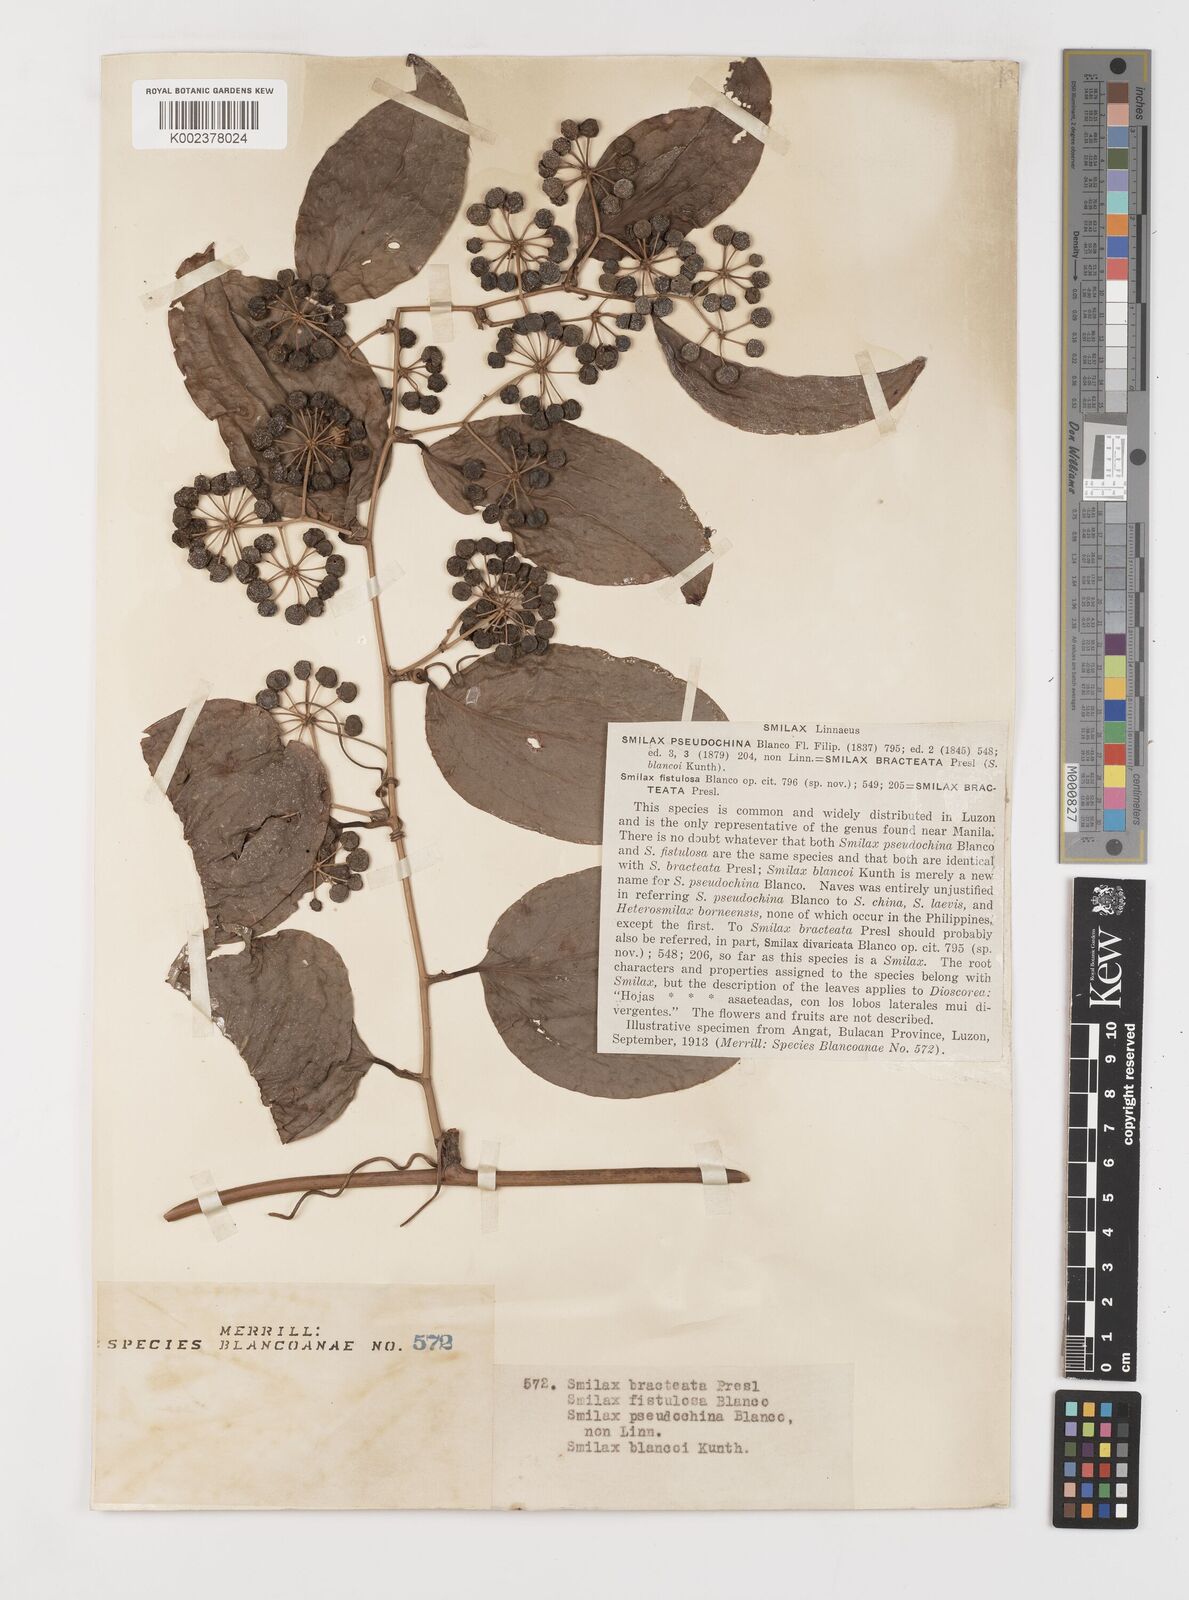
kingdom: Plantae
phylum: Tracheophyta
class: Liliopsida
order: Liliales
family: Smilacaceae
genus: Smilax
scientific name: Smilax bracteata
